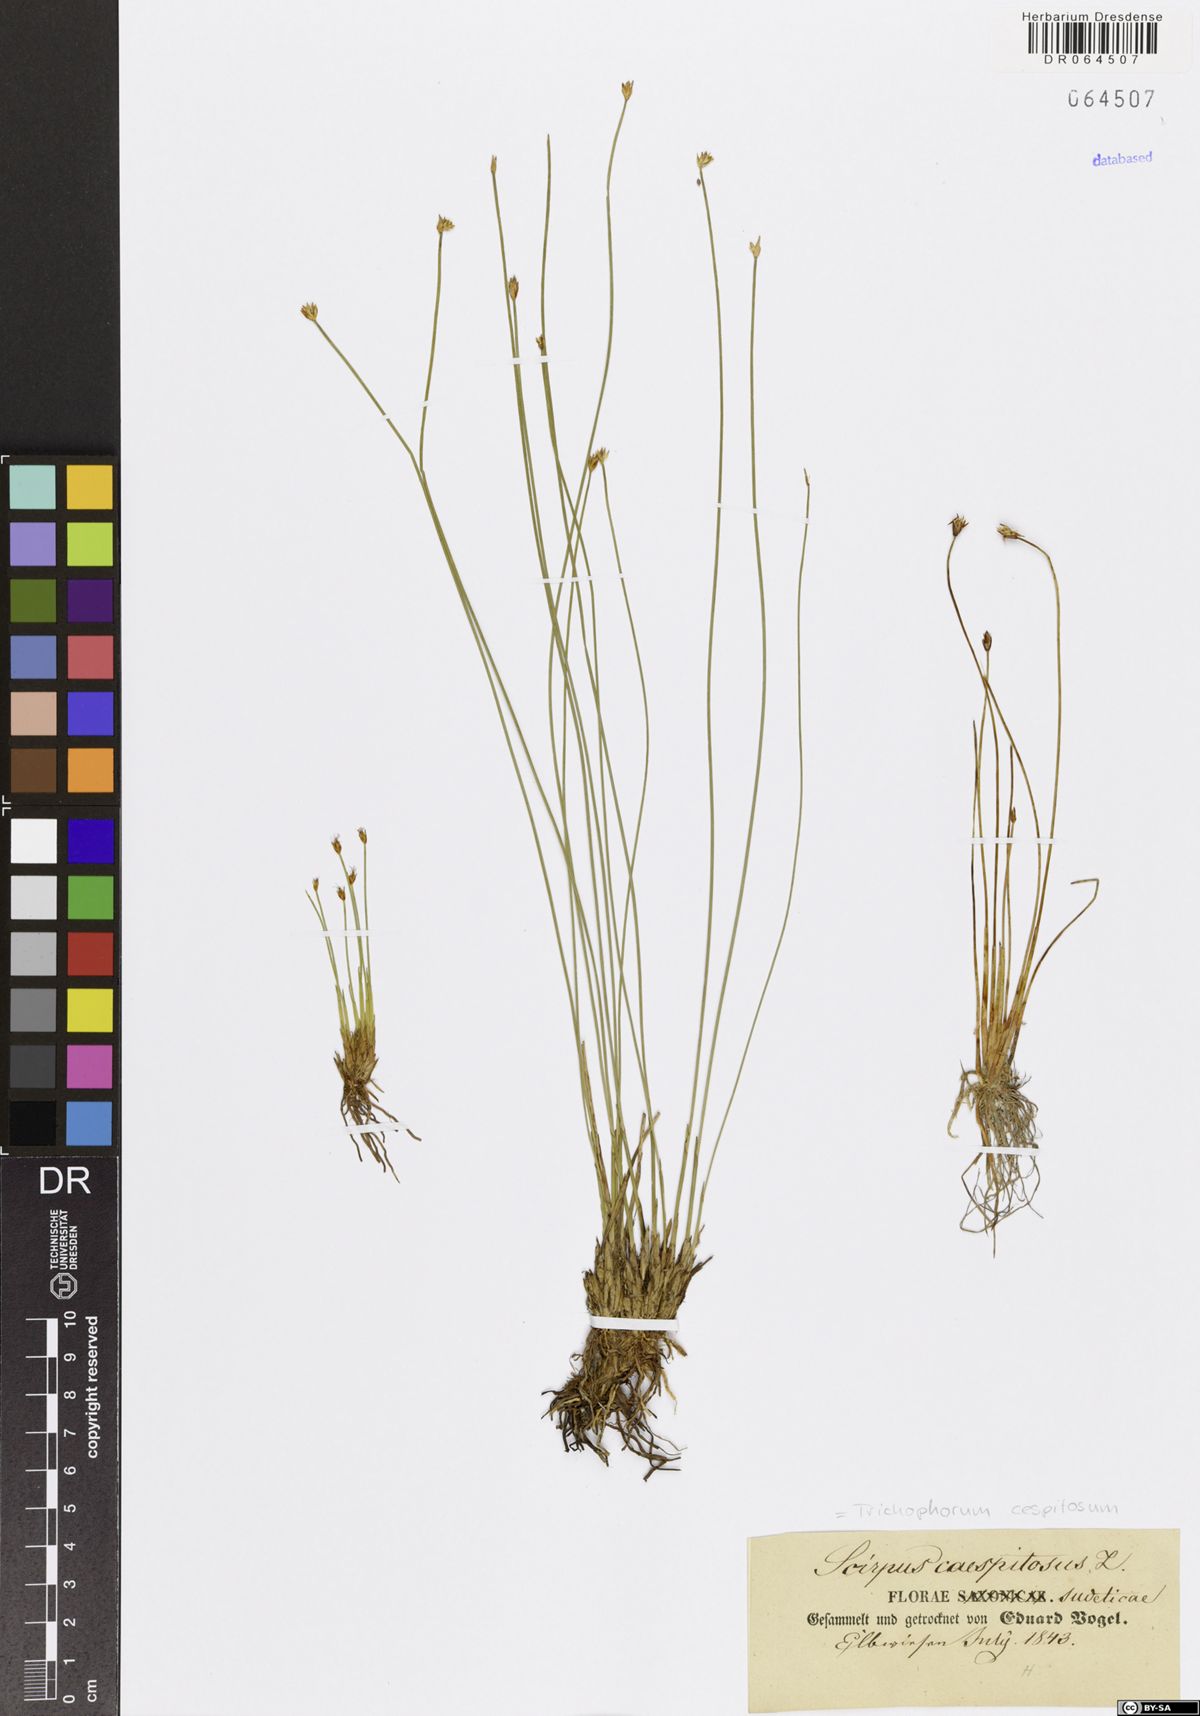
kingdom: Plantae
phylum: Tracheophyta
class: Liliopsida
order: Poales
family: Cyperaceae
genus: Trichophorum
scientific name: Trichophorum cespitosum
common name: Cespitose bulrush
